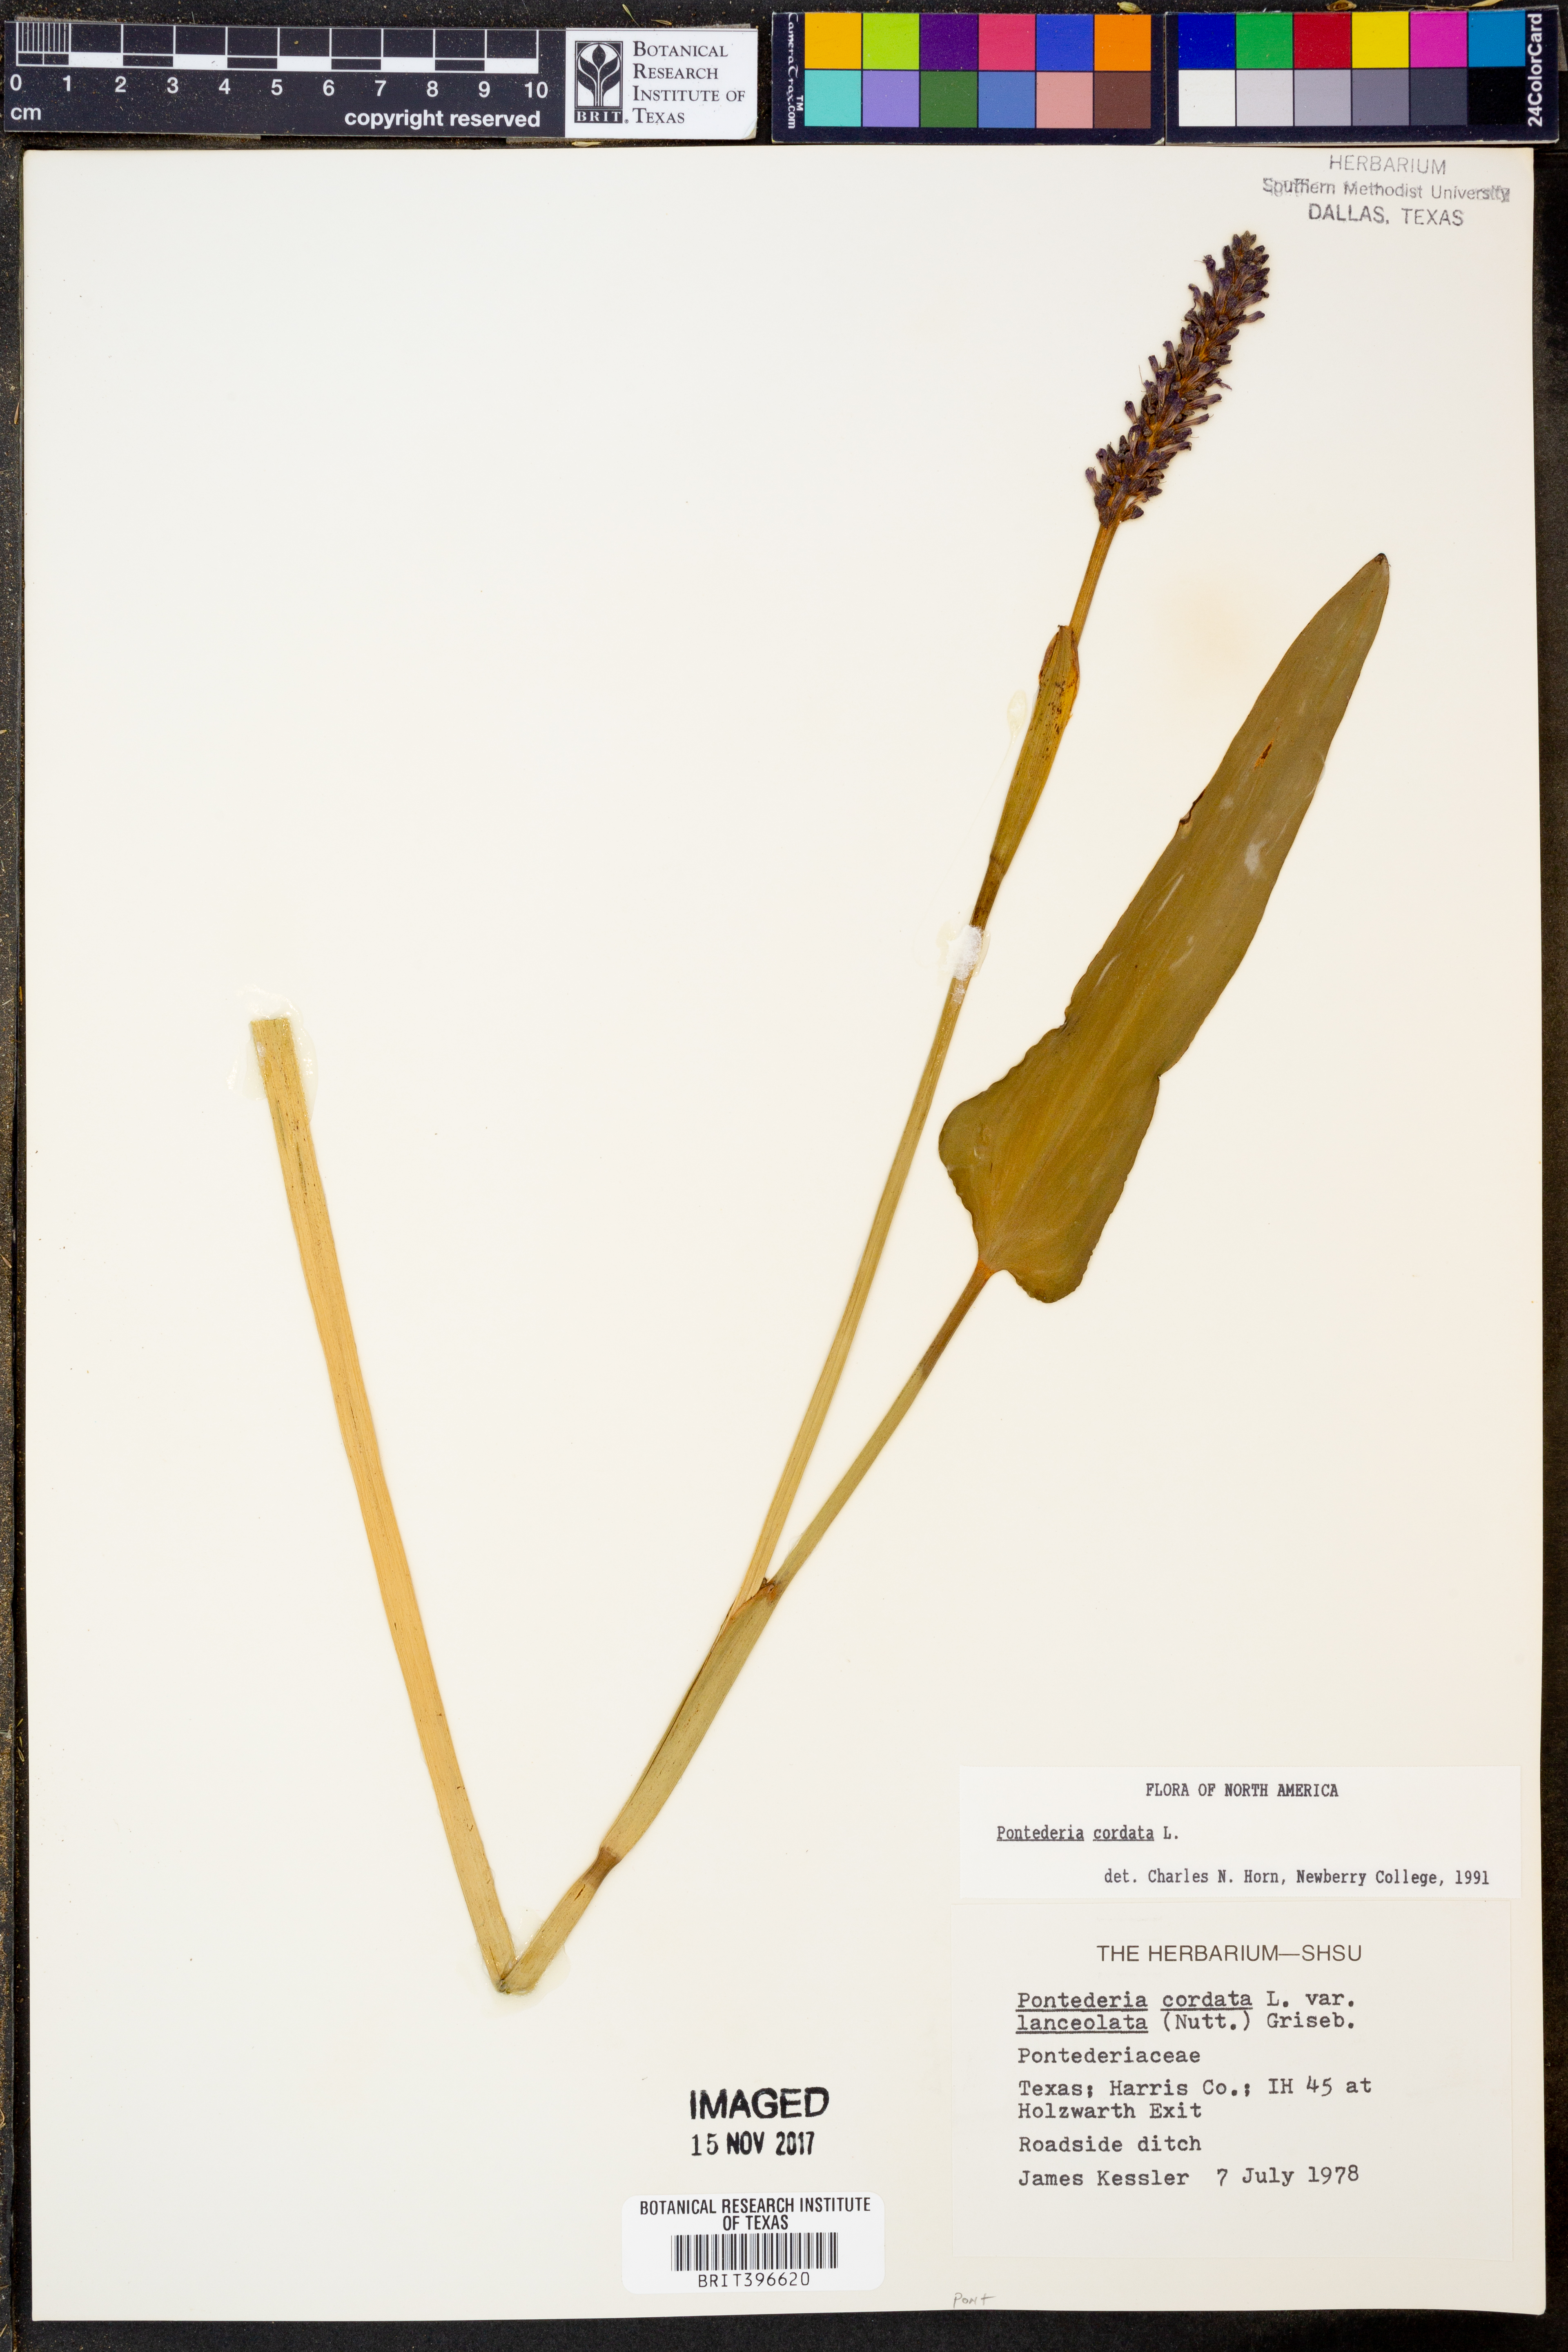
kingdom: Plantae
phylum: Tracheophyta
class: Liliopsida
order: Commelinales
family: Pontederiaceae
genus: Pontederia
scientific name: Pontederia cordata
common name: Pickerelweed
